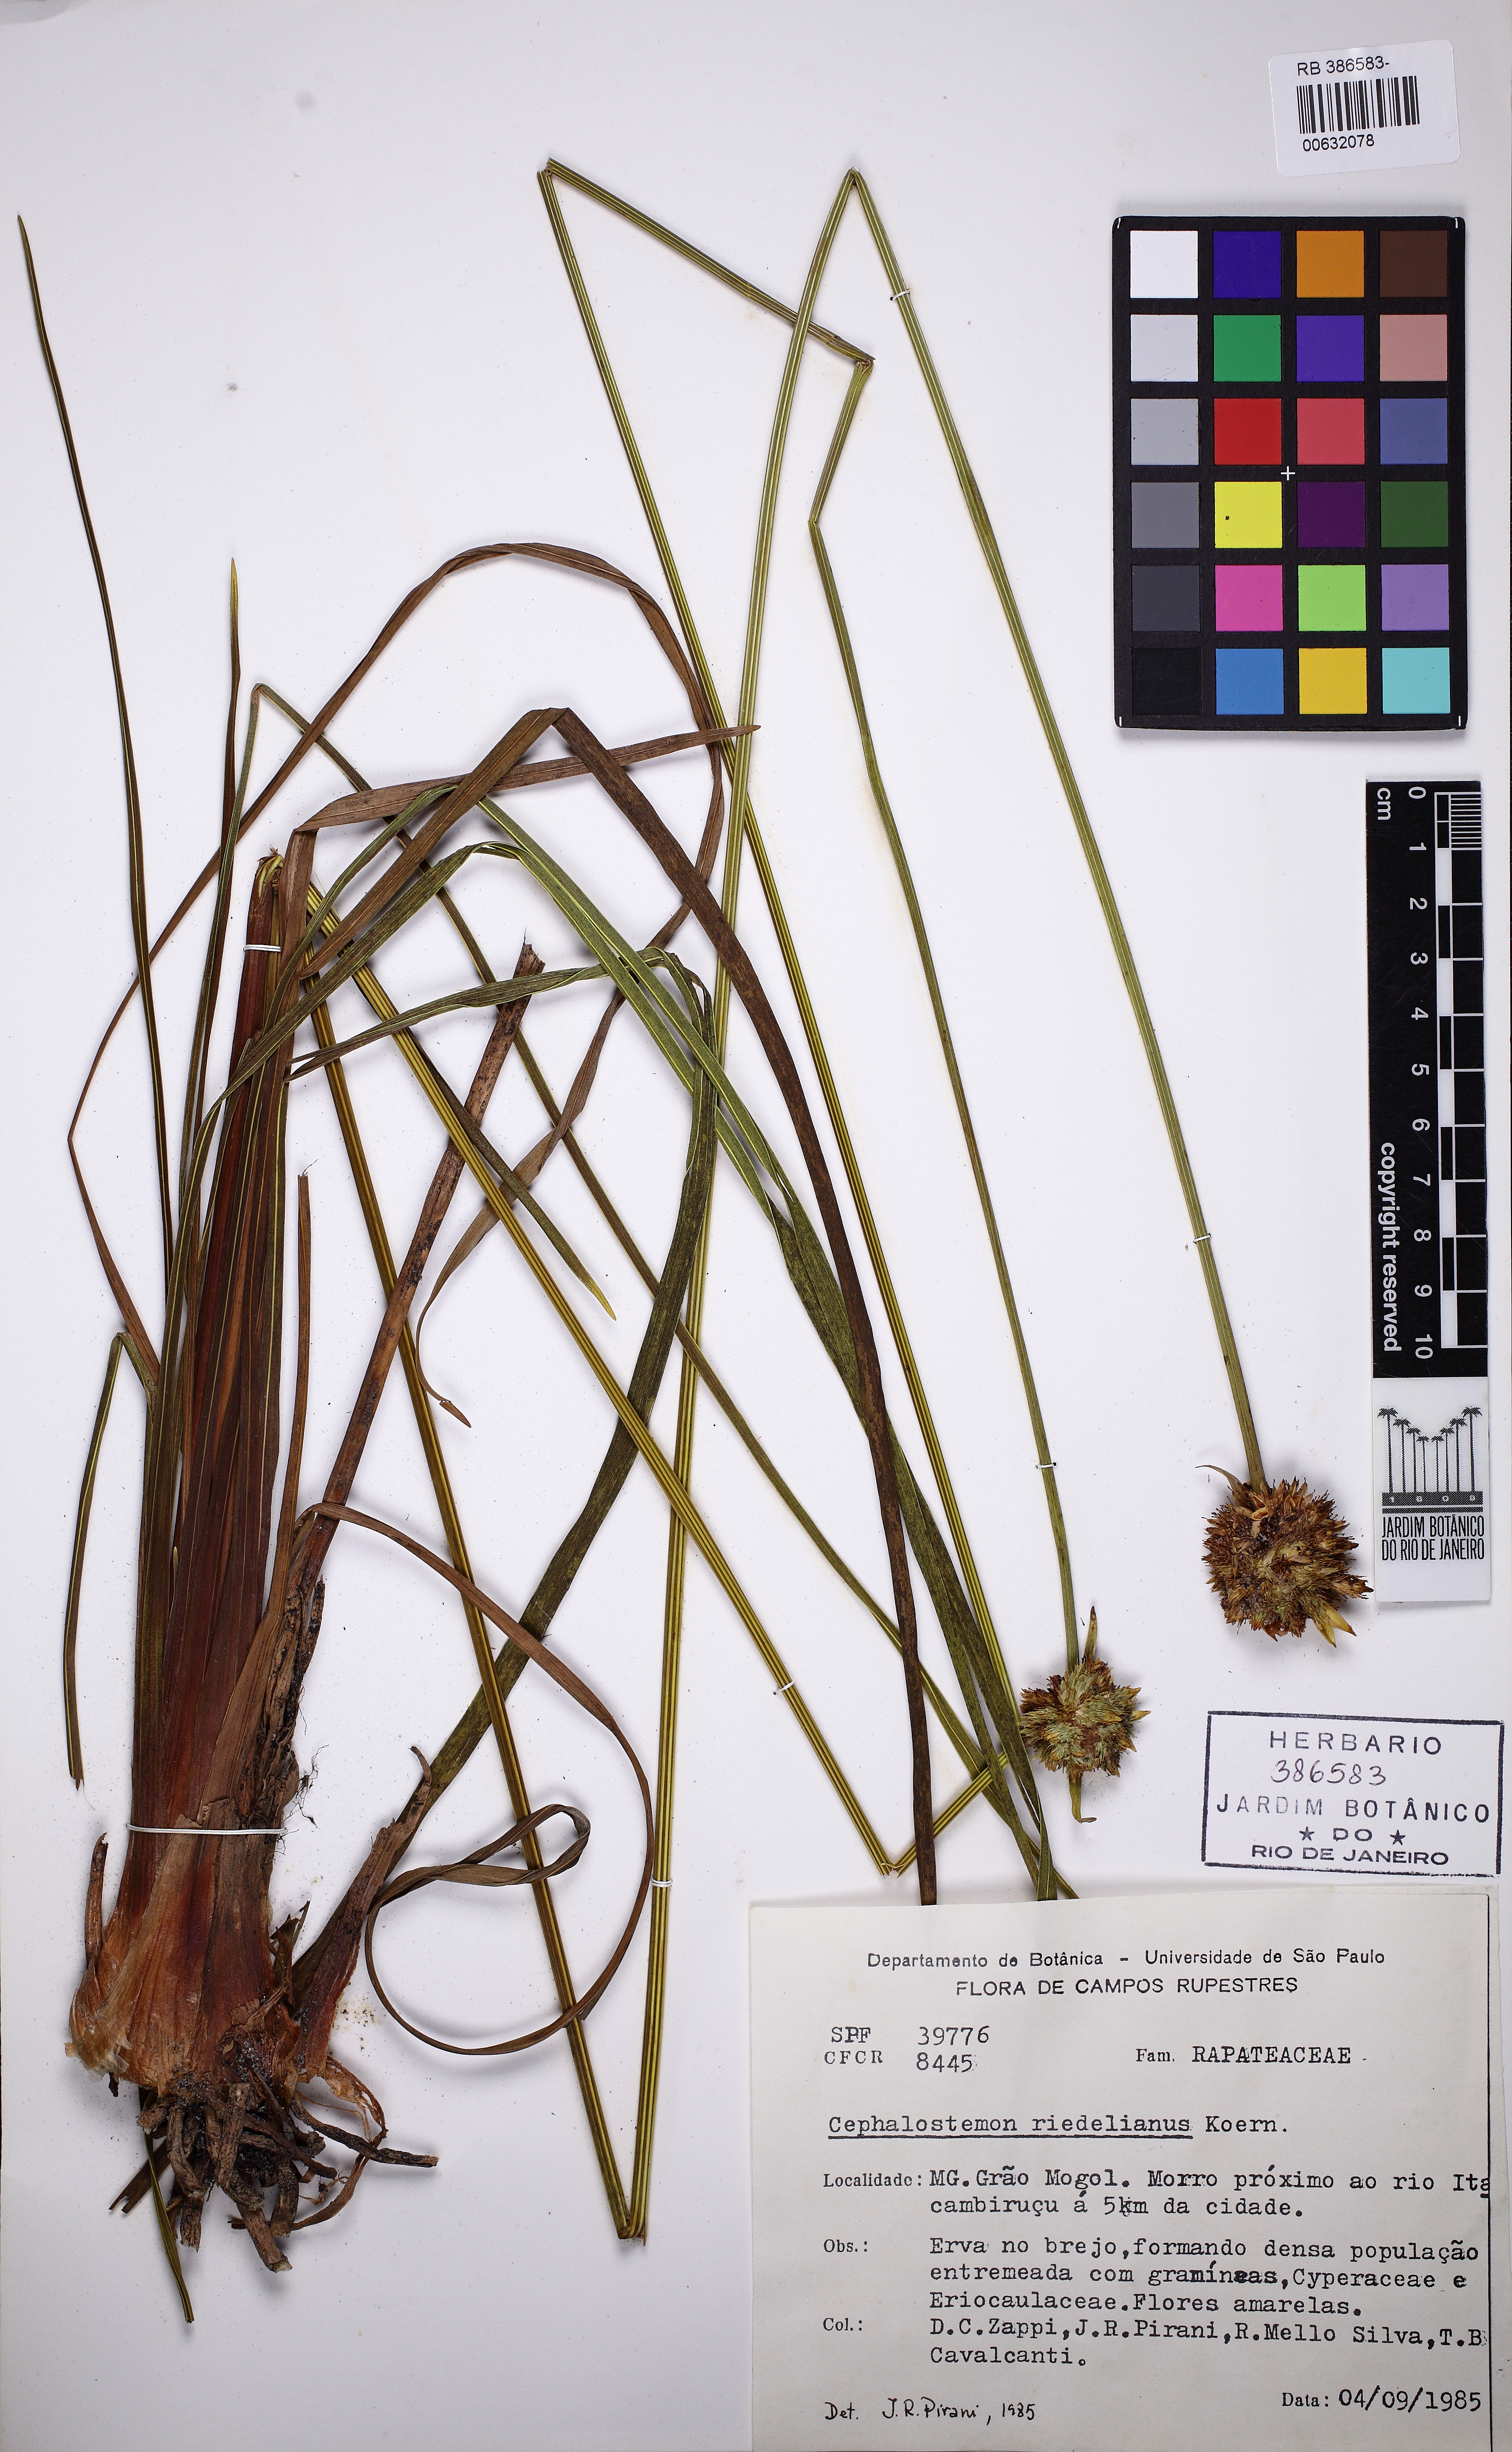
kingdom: Plantae
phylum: Tracheophyta
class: Liliopsida
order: Poales
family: Rapateaceae
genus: Cephalostemon
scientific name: Cephalostemon riedelianus
